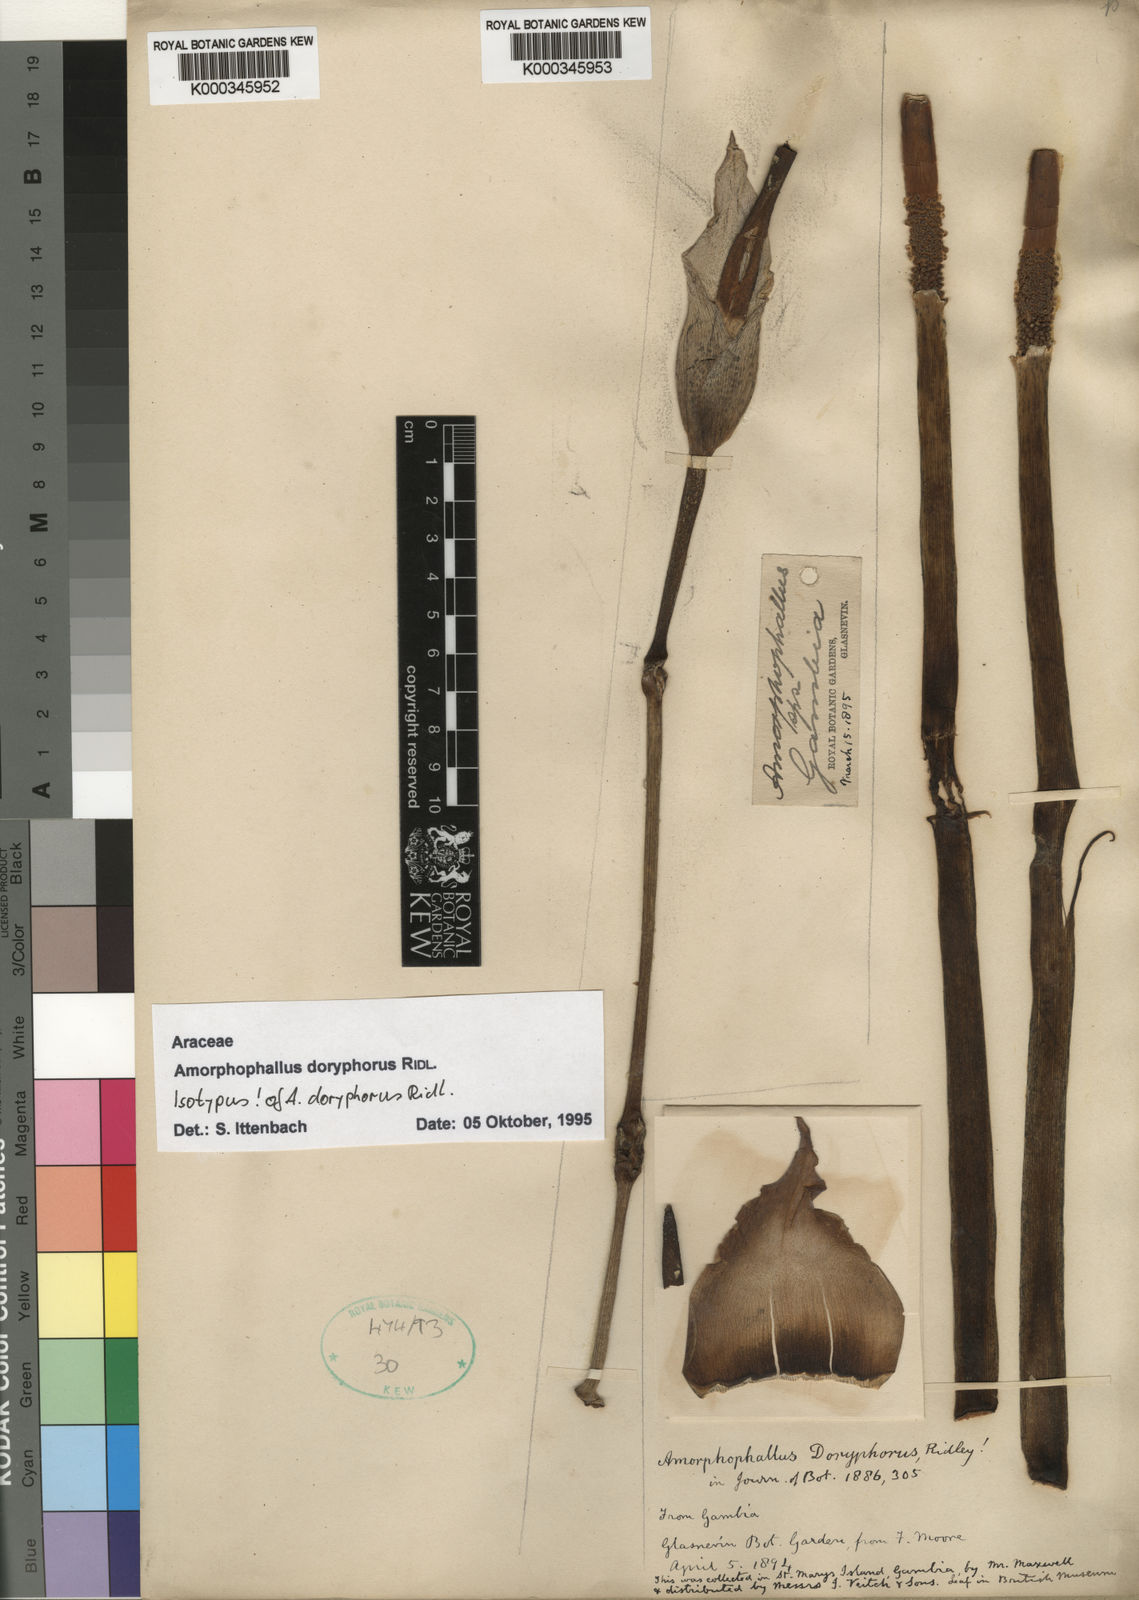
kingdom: Plantae
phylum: Tracheophyta
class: Liliopsida
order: Alismatales
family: Araceae
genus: Amorphophallus
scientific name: Amorphophallus consimilis
